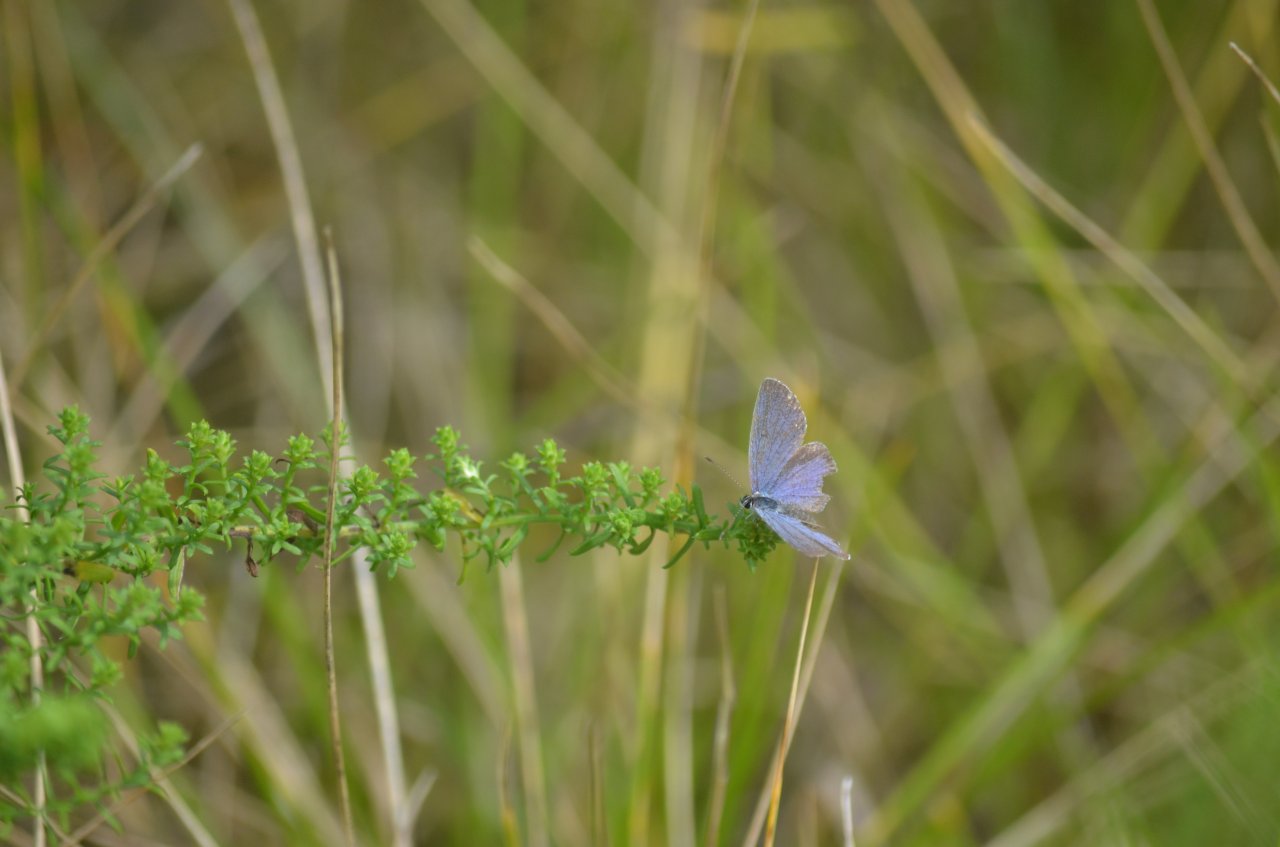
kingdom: Animalia
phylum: Arthropoda
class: Insecta
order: Lepidoptera
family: Lycaenidae
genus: Elkalyce
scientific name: Elkalyce comyntas
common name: Eastern Tailed-Blue
